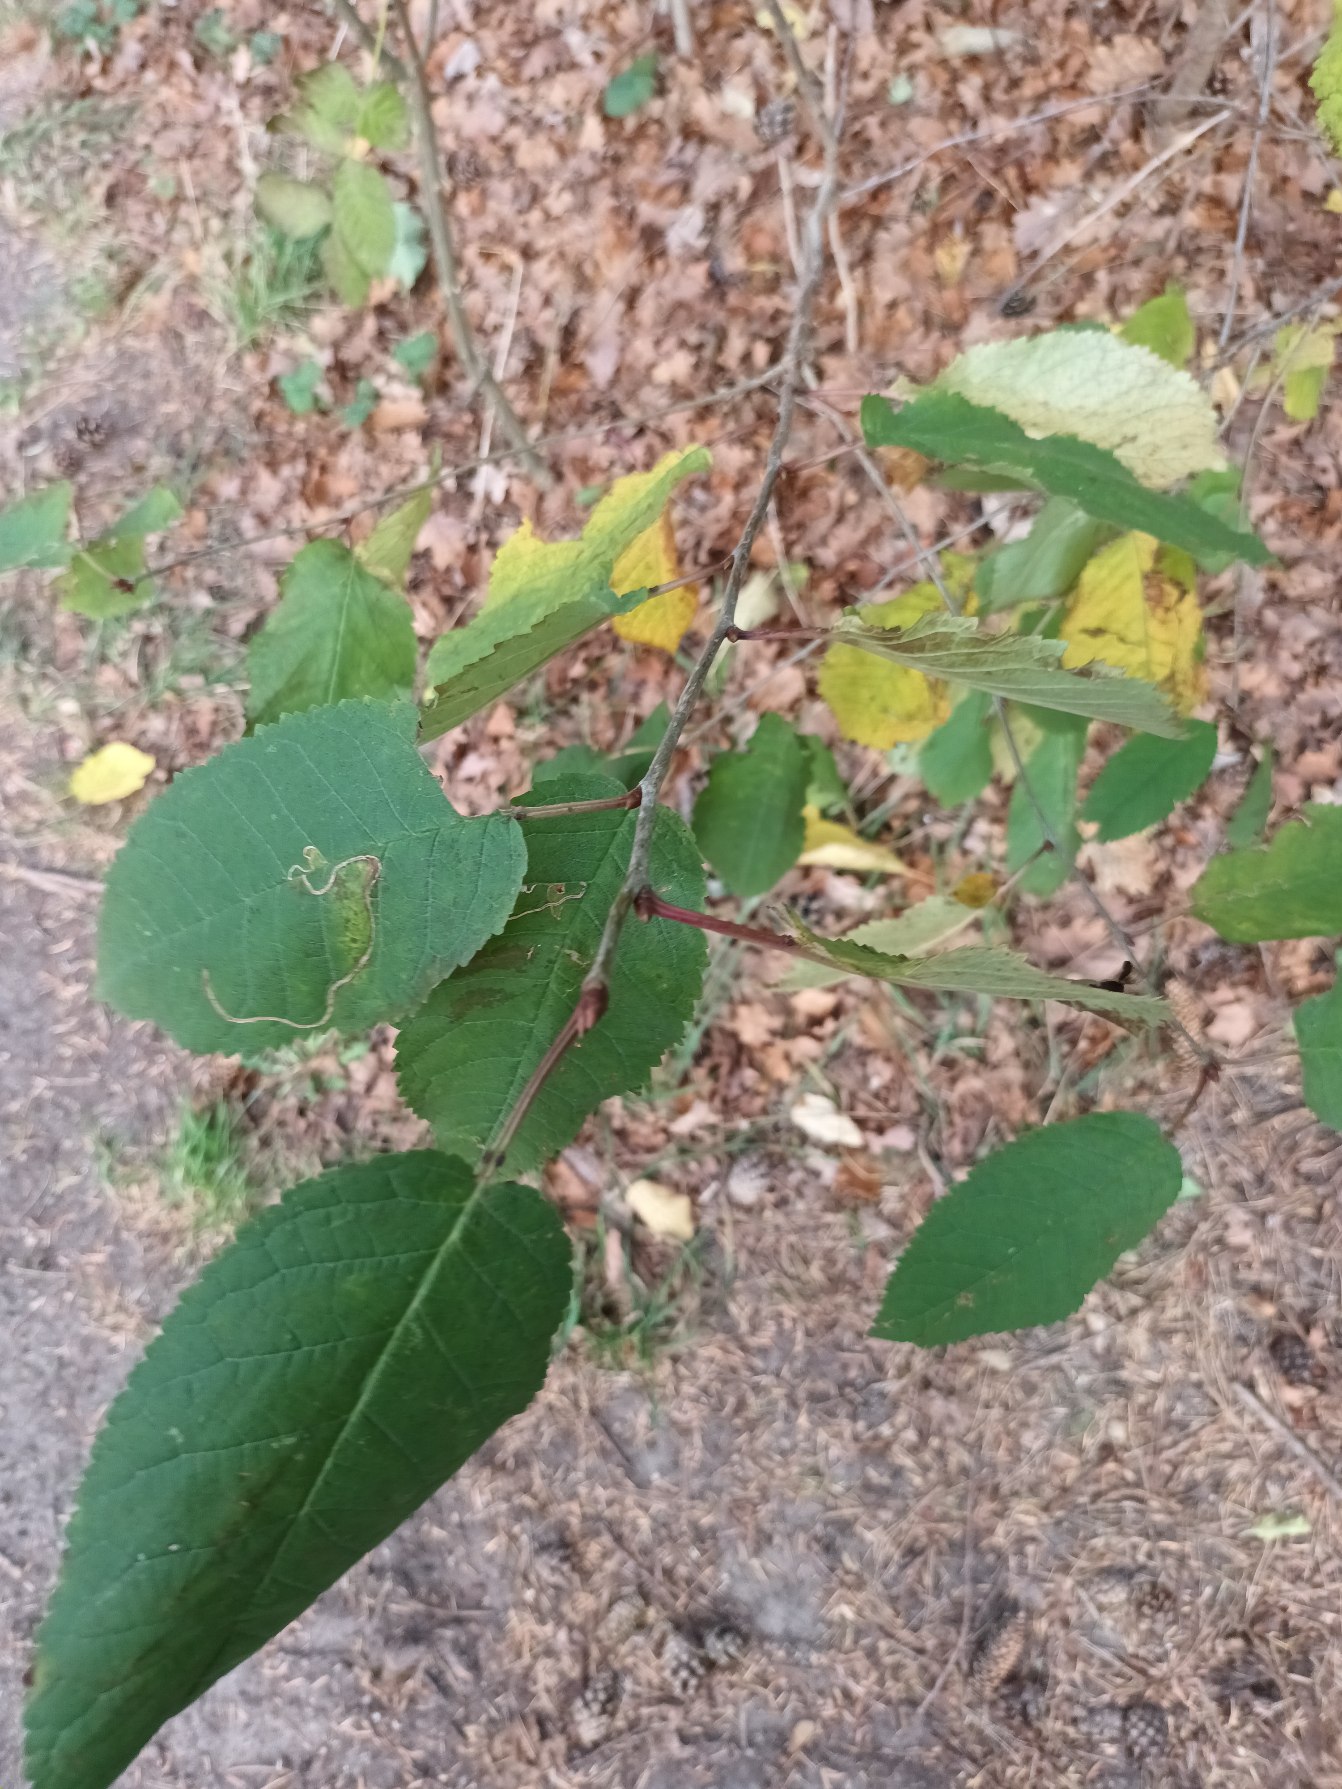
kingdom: Plantae
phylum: Tracheophyta
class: Magnoliopsida
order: Rosales
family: Rosaceae
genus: Prunus
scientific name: Prunus avium
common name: Fugle-kirsebær
